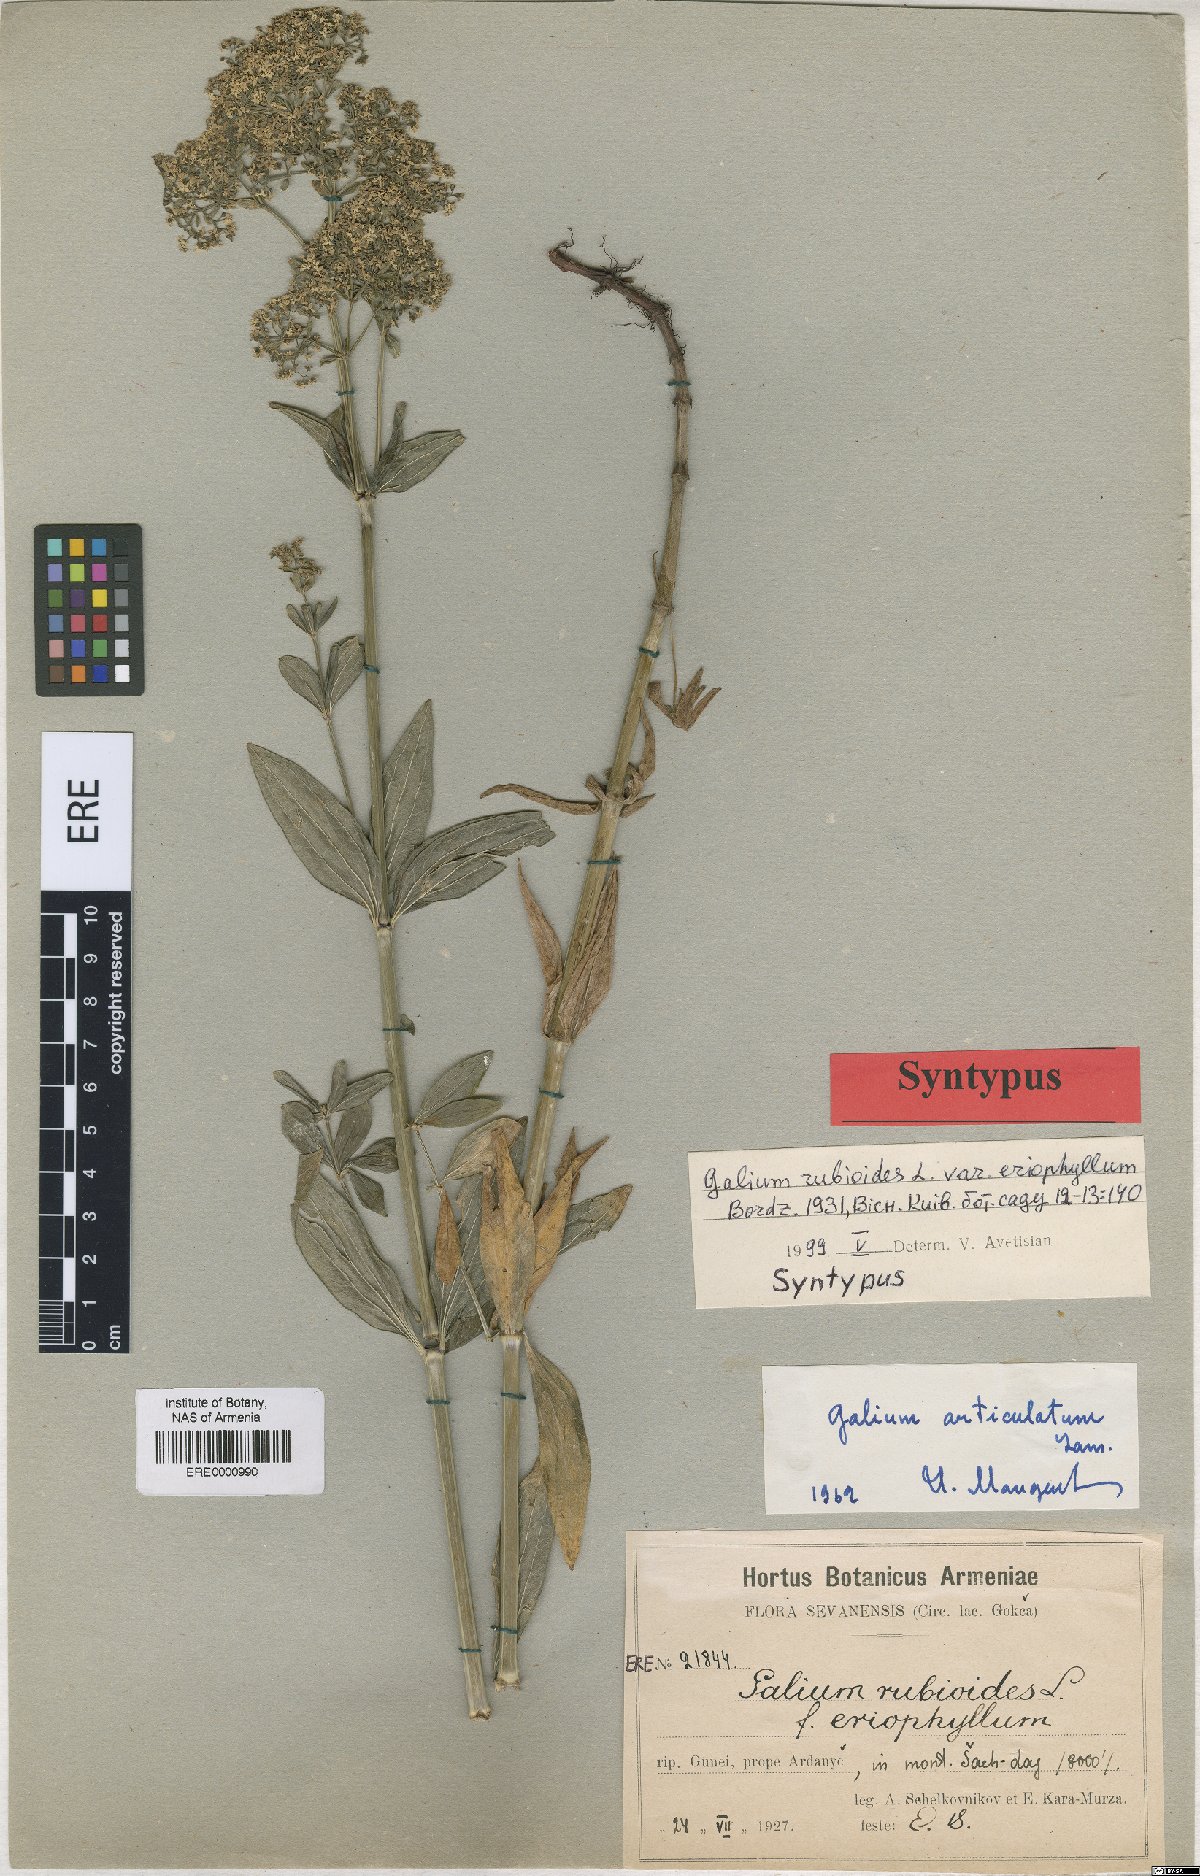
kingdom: Plantae
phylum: Tracheophyta
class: Magnoliopsida
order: Gentianales
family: Rubiaceae
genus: Galium
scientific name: Galium rubioides
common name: European bedstraw
